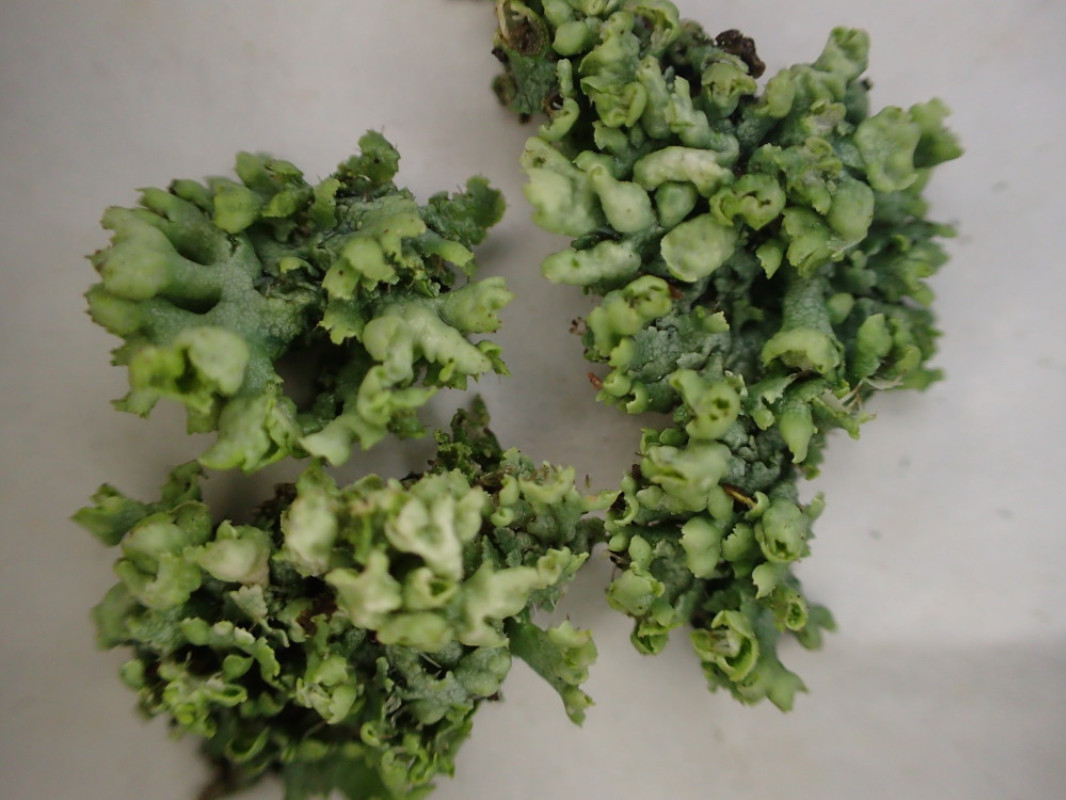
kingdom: Fungi
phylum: Ascomycota
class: Lecanoromycetes
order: Caliciales
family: Physciaceae
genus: Physcia
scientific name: Physcia adscendens
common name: hætte-rosetlav
